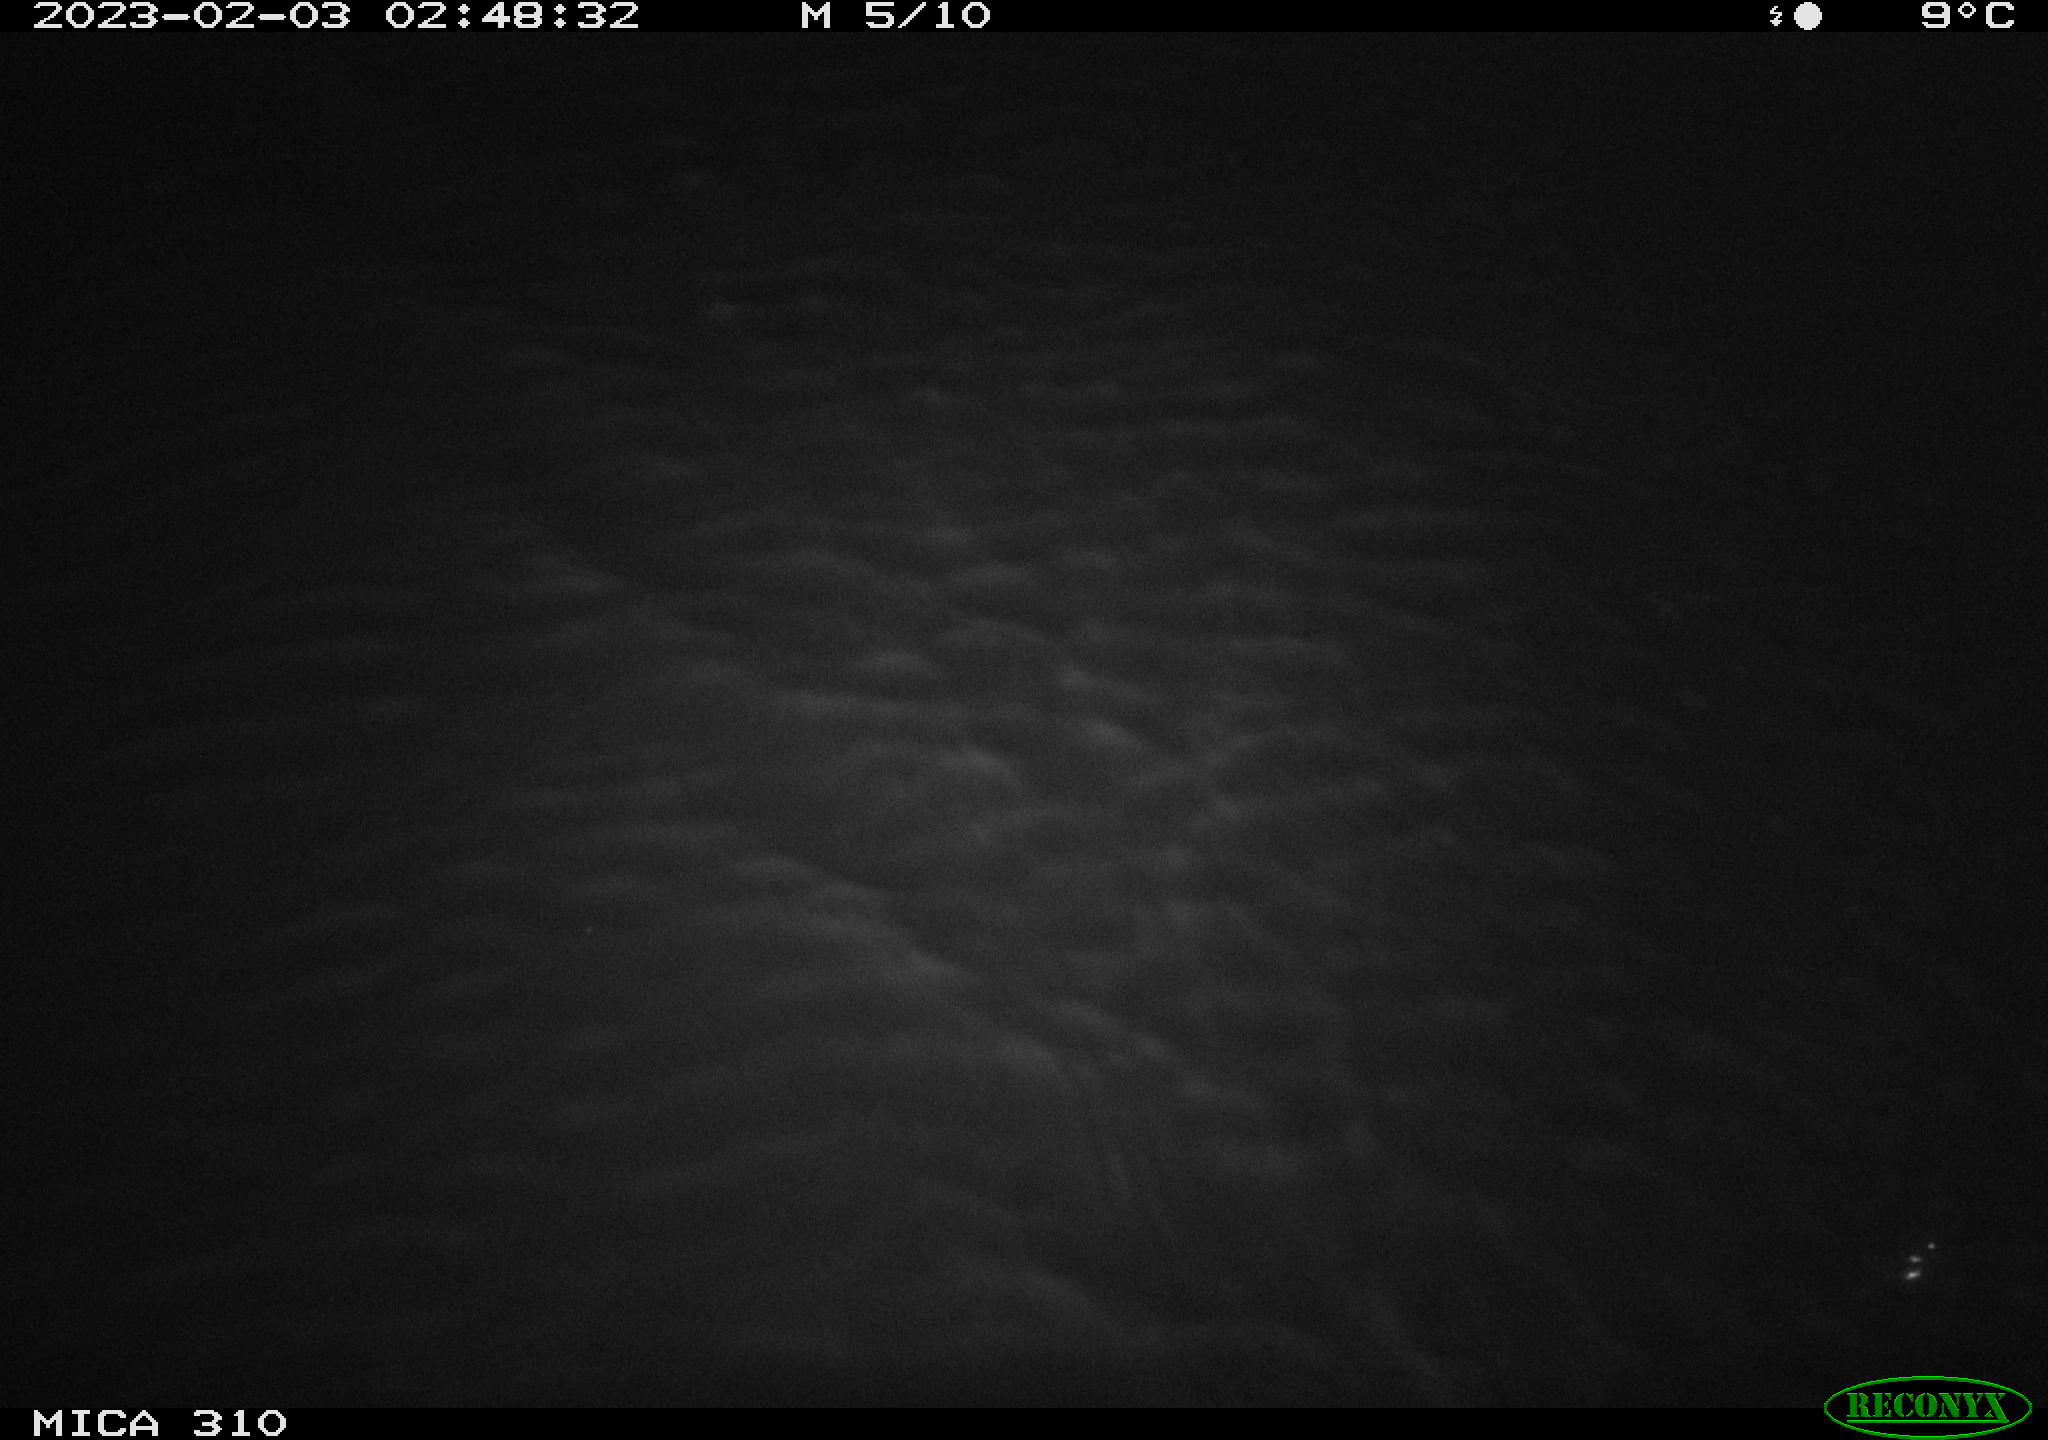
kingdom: Animalia
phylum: Chordata
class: Mammalia
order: Rodentia
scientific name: Rodentia
